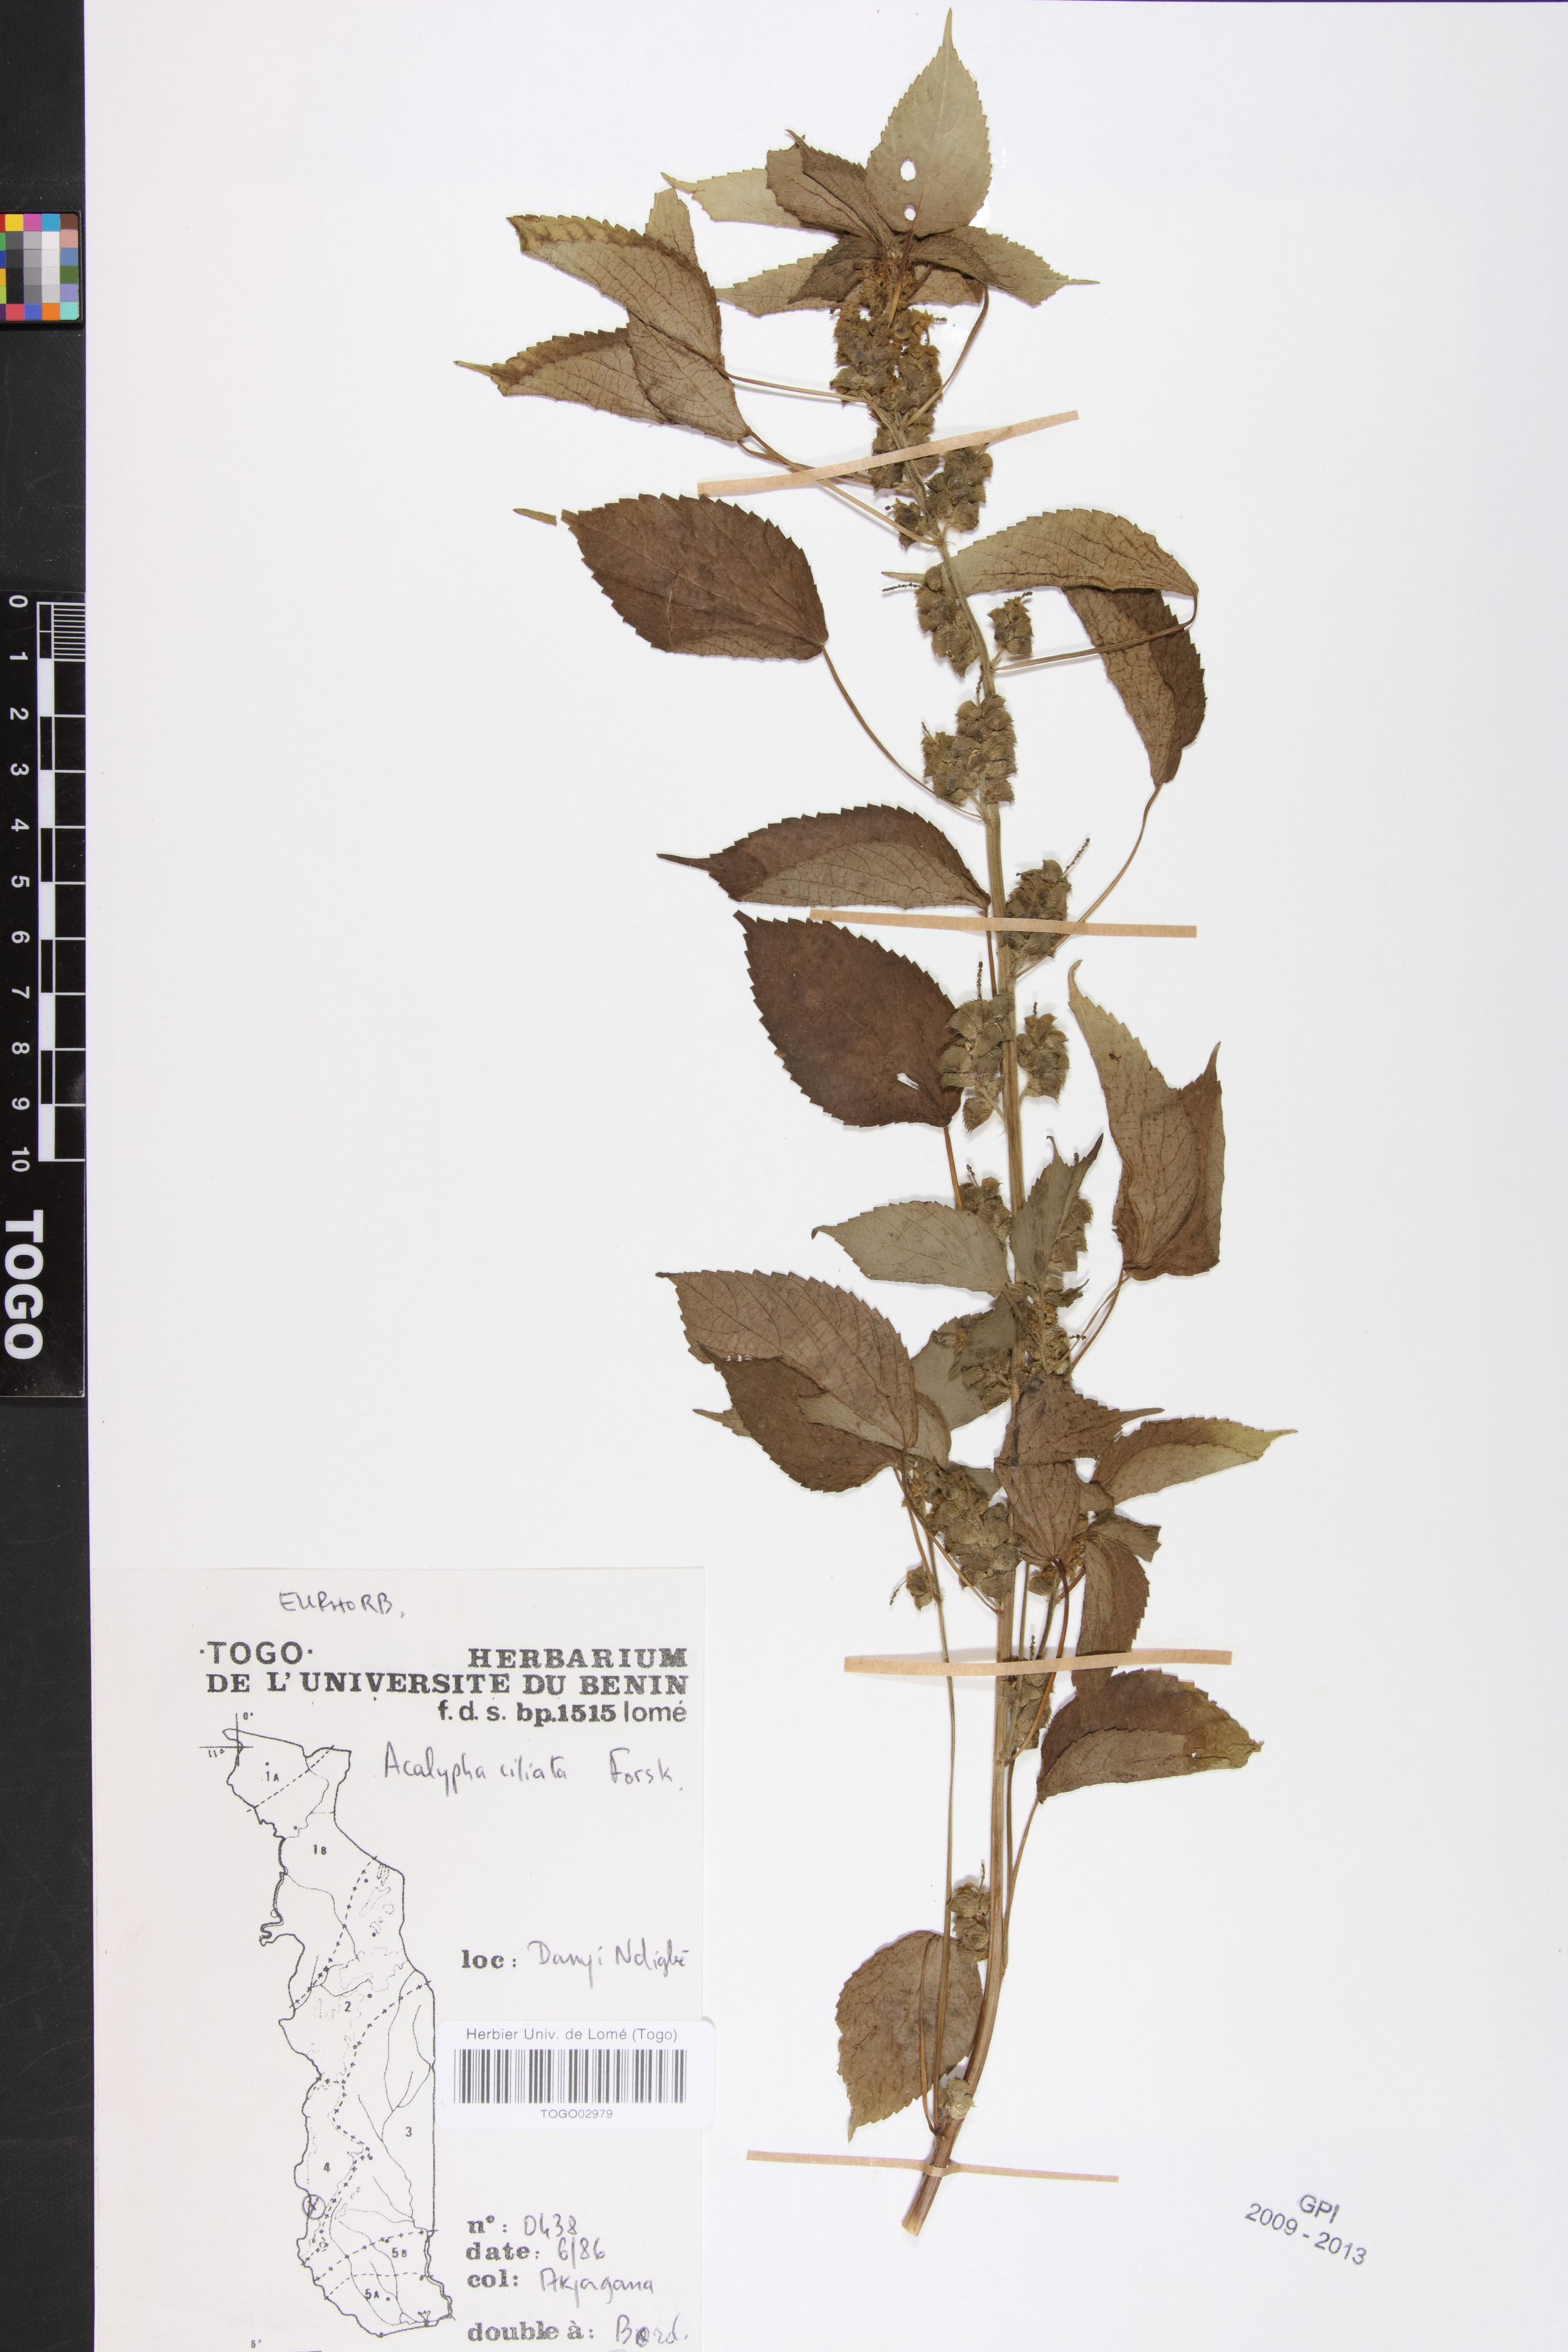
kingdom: Plantae
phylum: Tracheophyta
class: Magnoliopsida
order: Malpighiales
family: Phyllanthaceae
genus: Maesobotrya
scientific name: Maesobotrya
